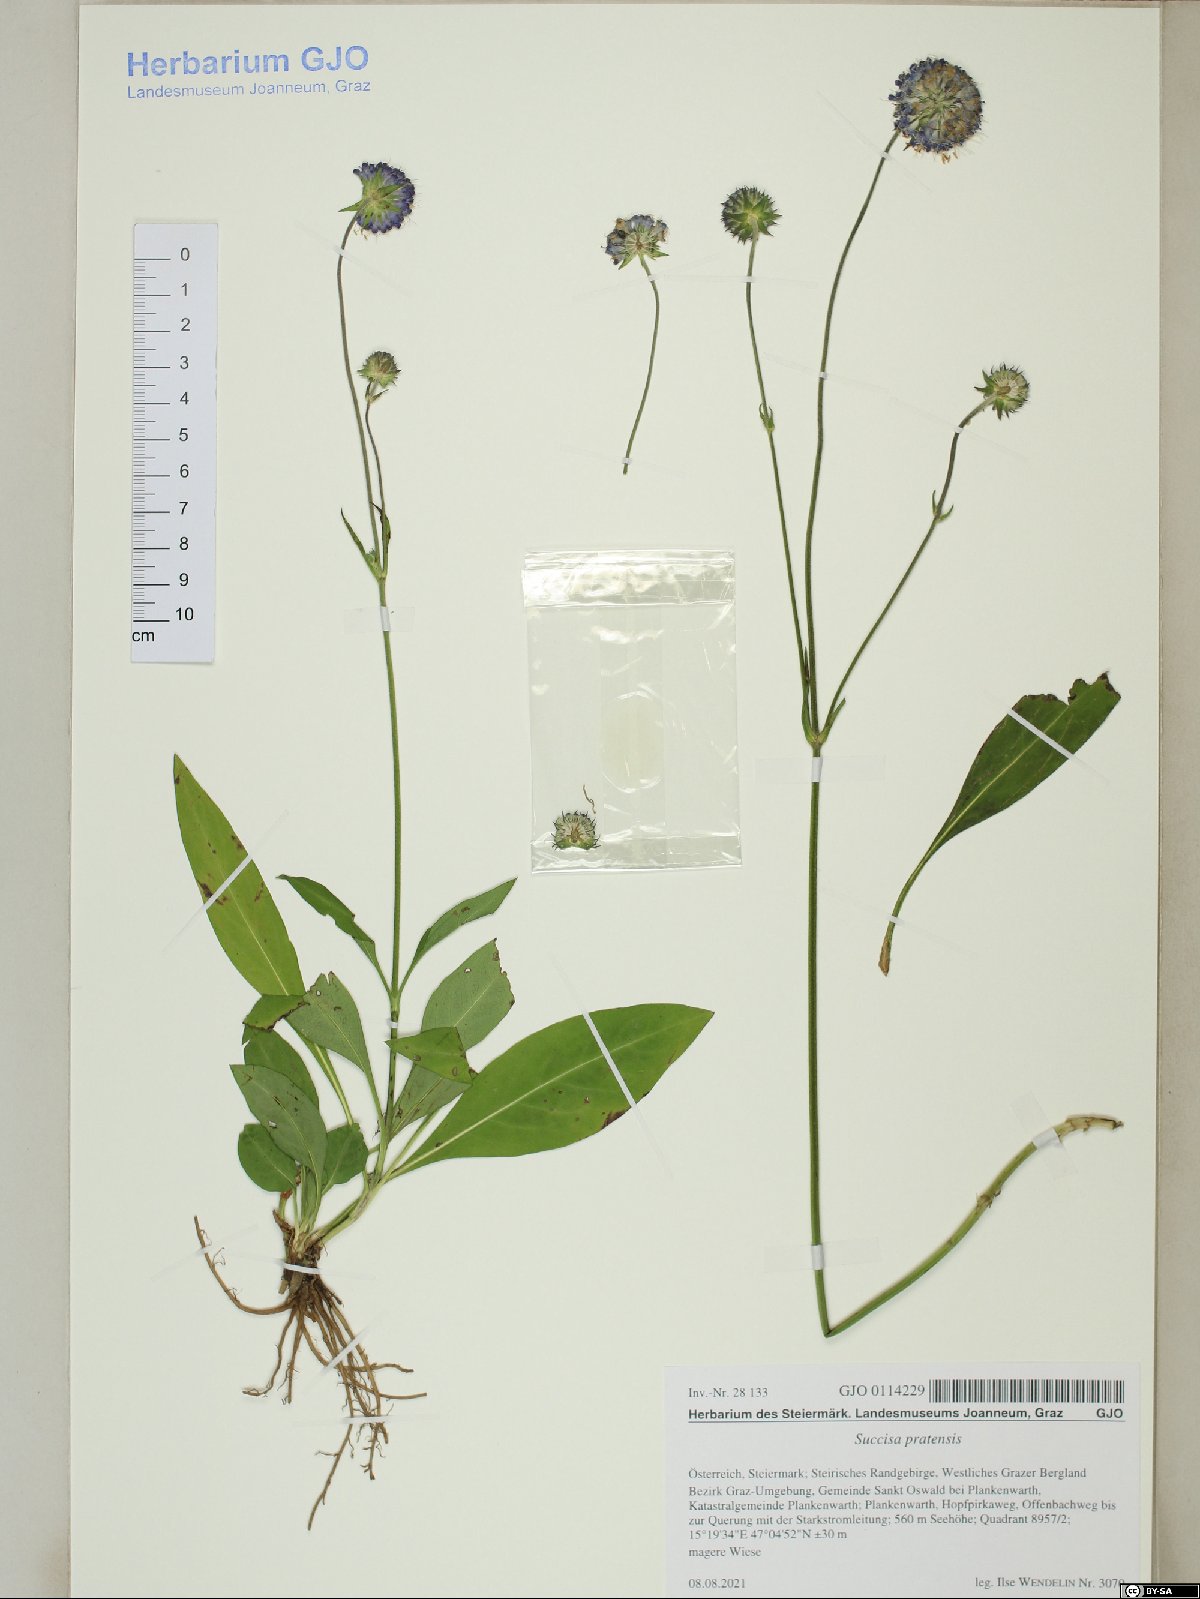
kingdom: Plantae
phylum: Tracheophyta
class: Magnoliopsida
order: Dipsacales
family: Caprifoliaceae
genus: Succisa
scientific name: Succisa pratensis
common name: Devil's-bit
